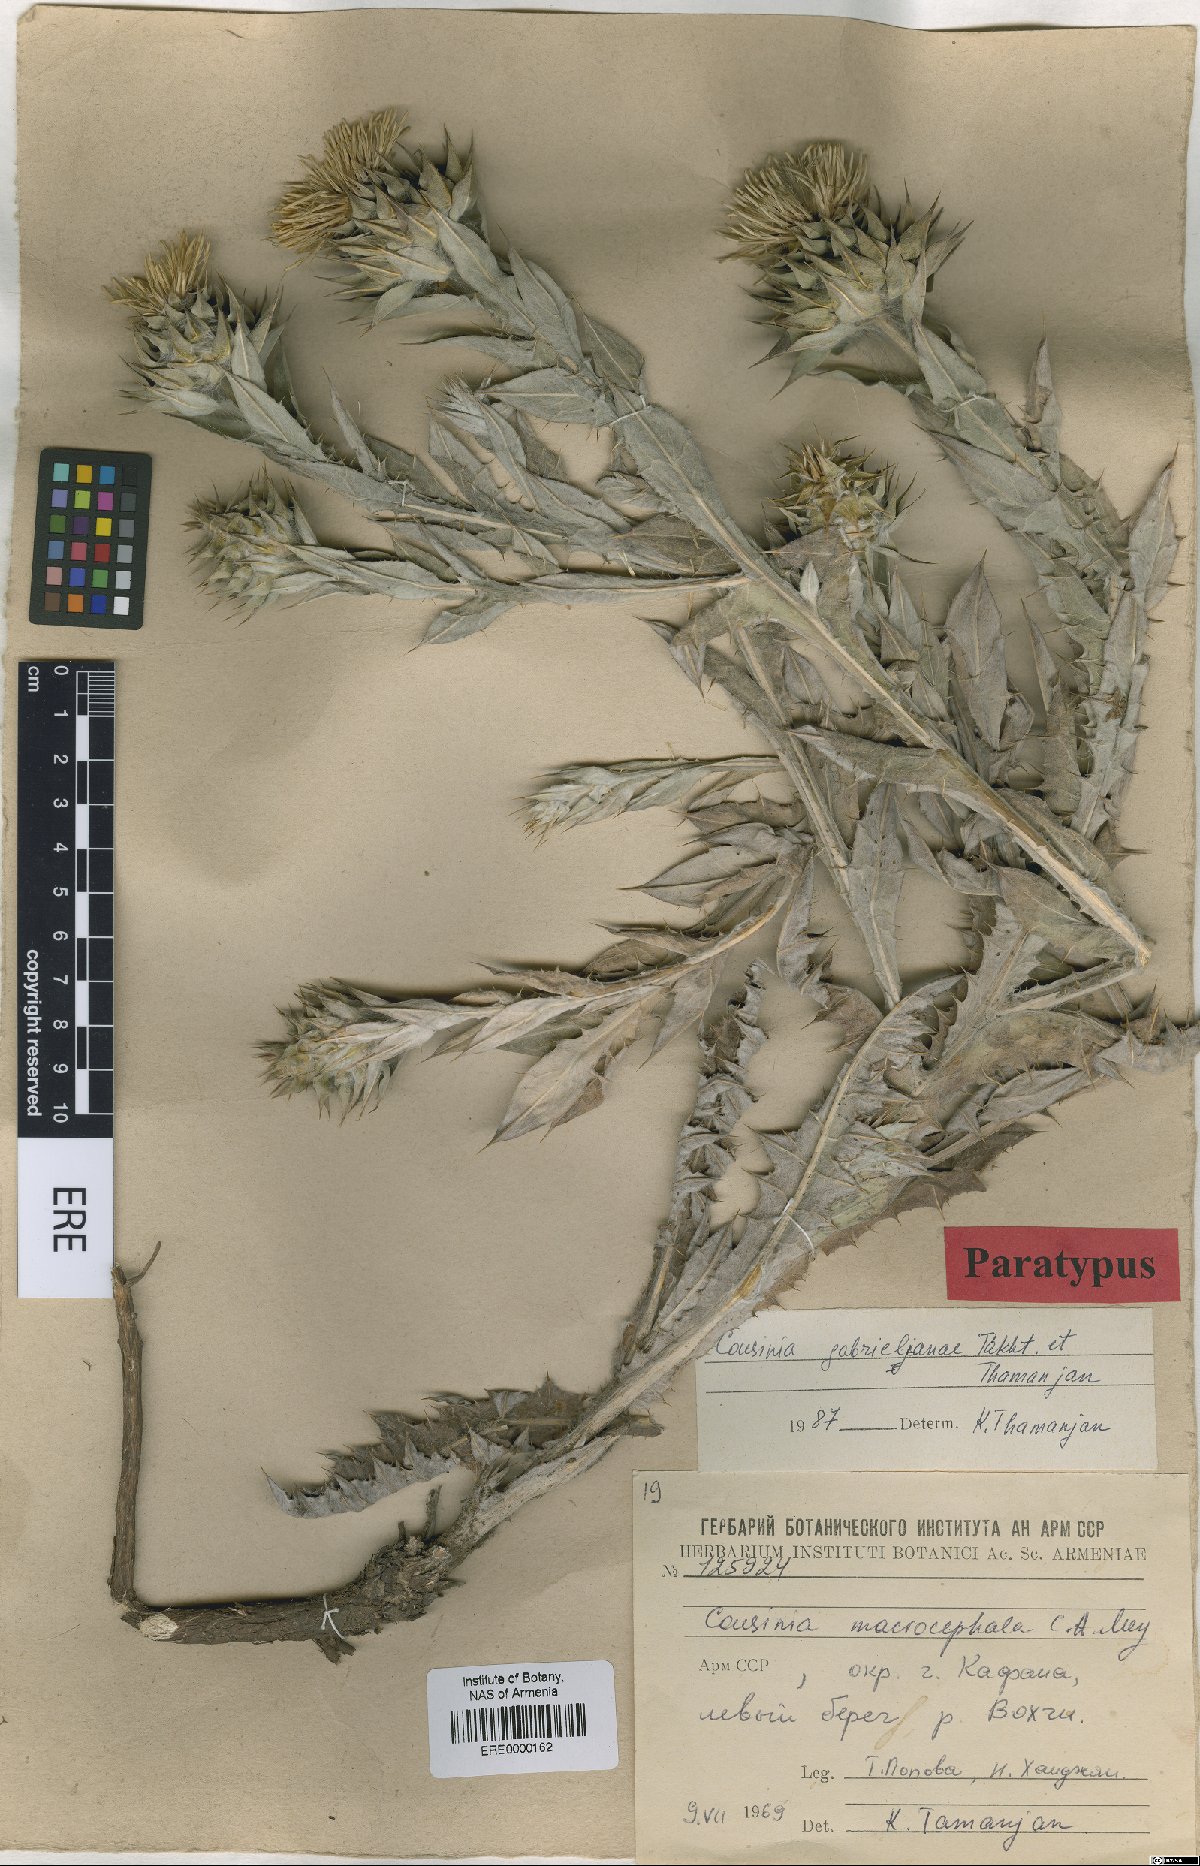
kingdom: Plantae
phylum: Tracheophyta
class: Magnoliopsida
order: Asterales
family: Asteraceae
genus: Cousinia
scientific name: Cousinia macrocephala
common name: Macrocephalous cousinia
